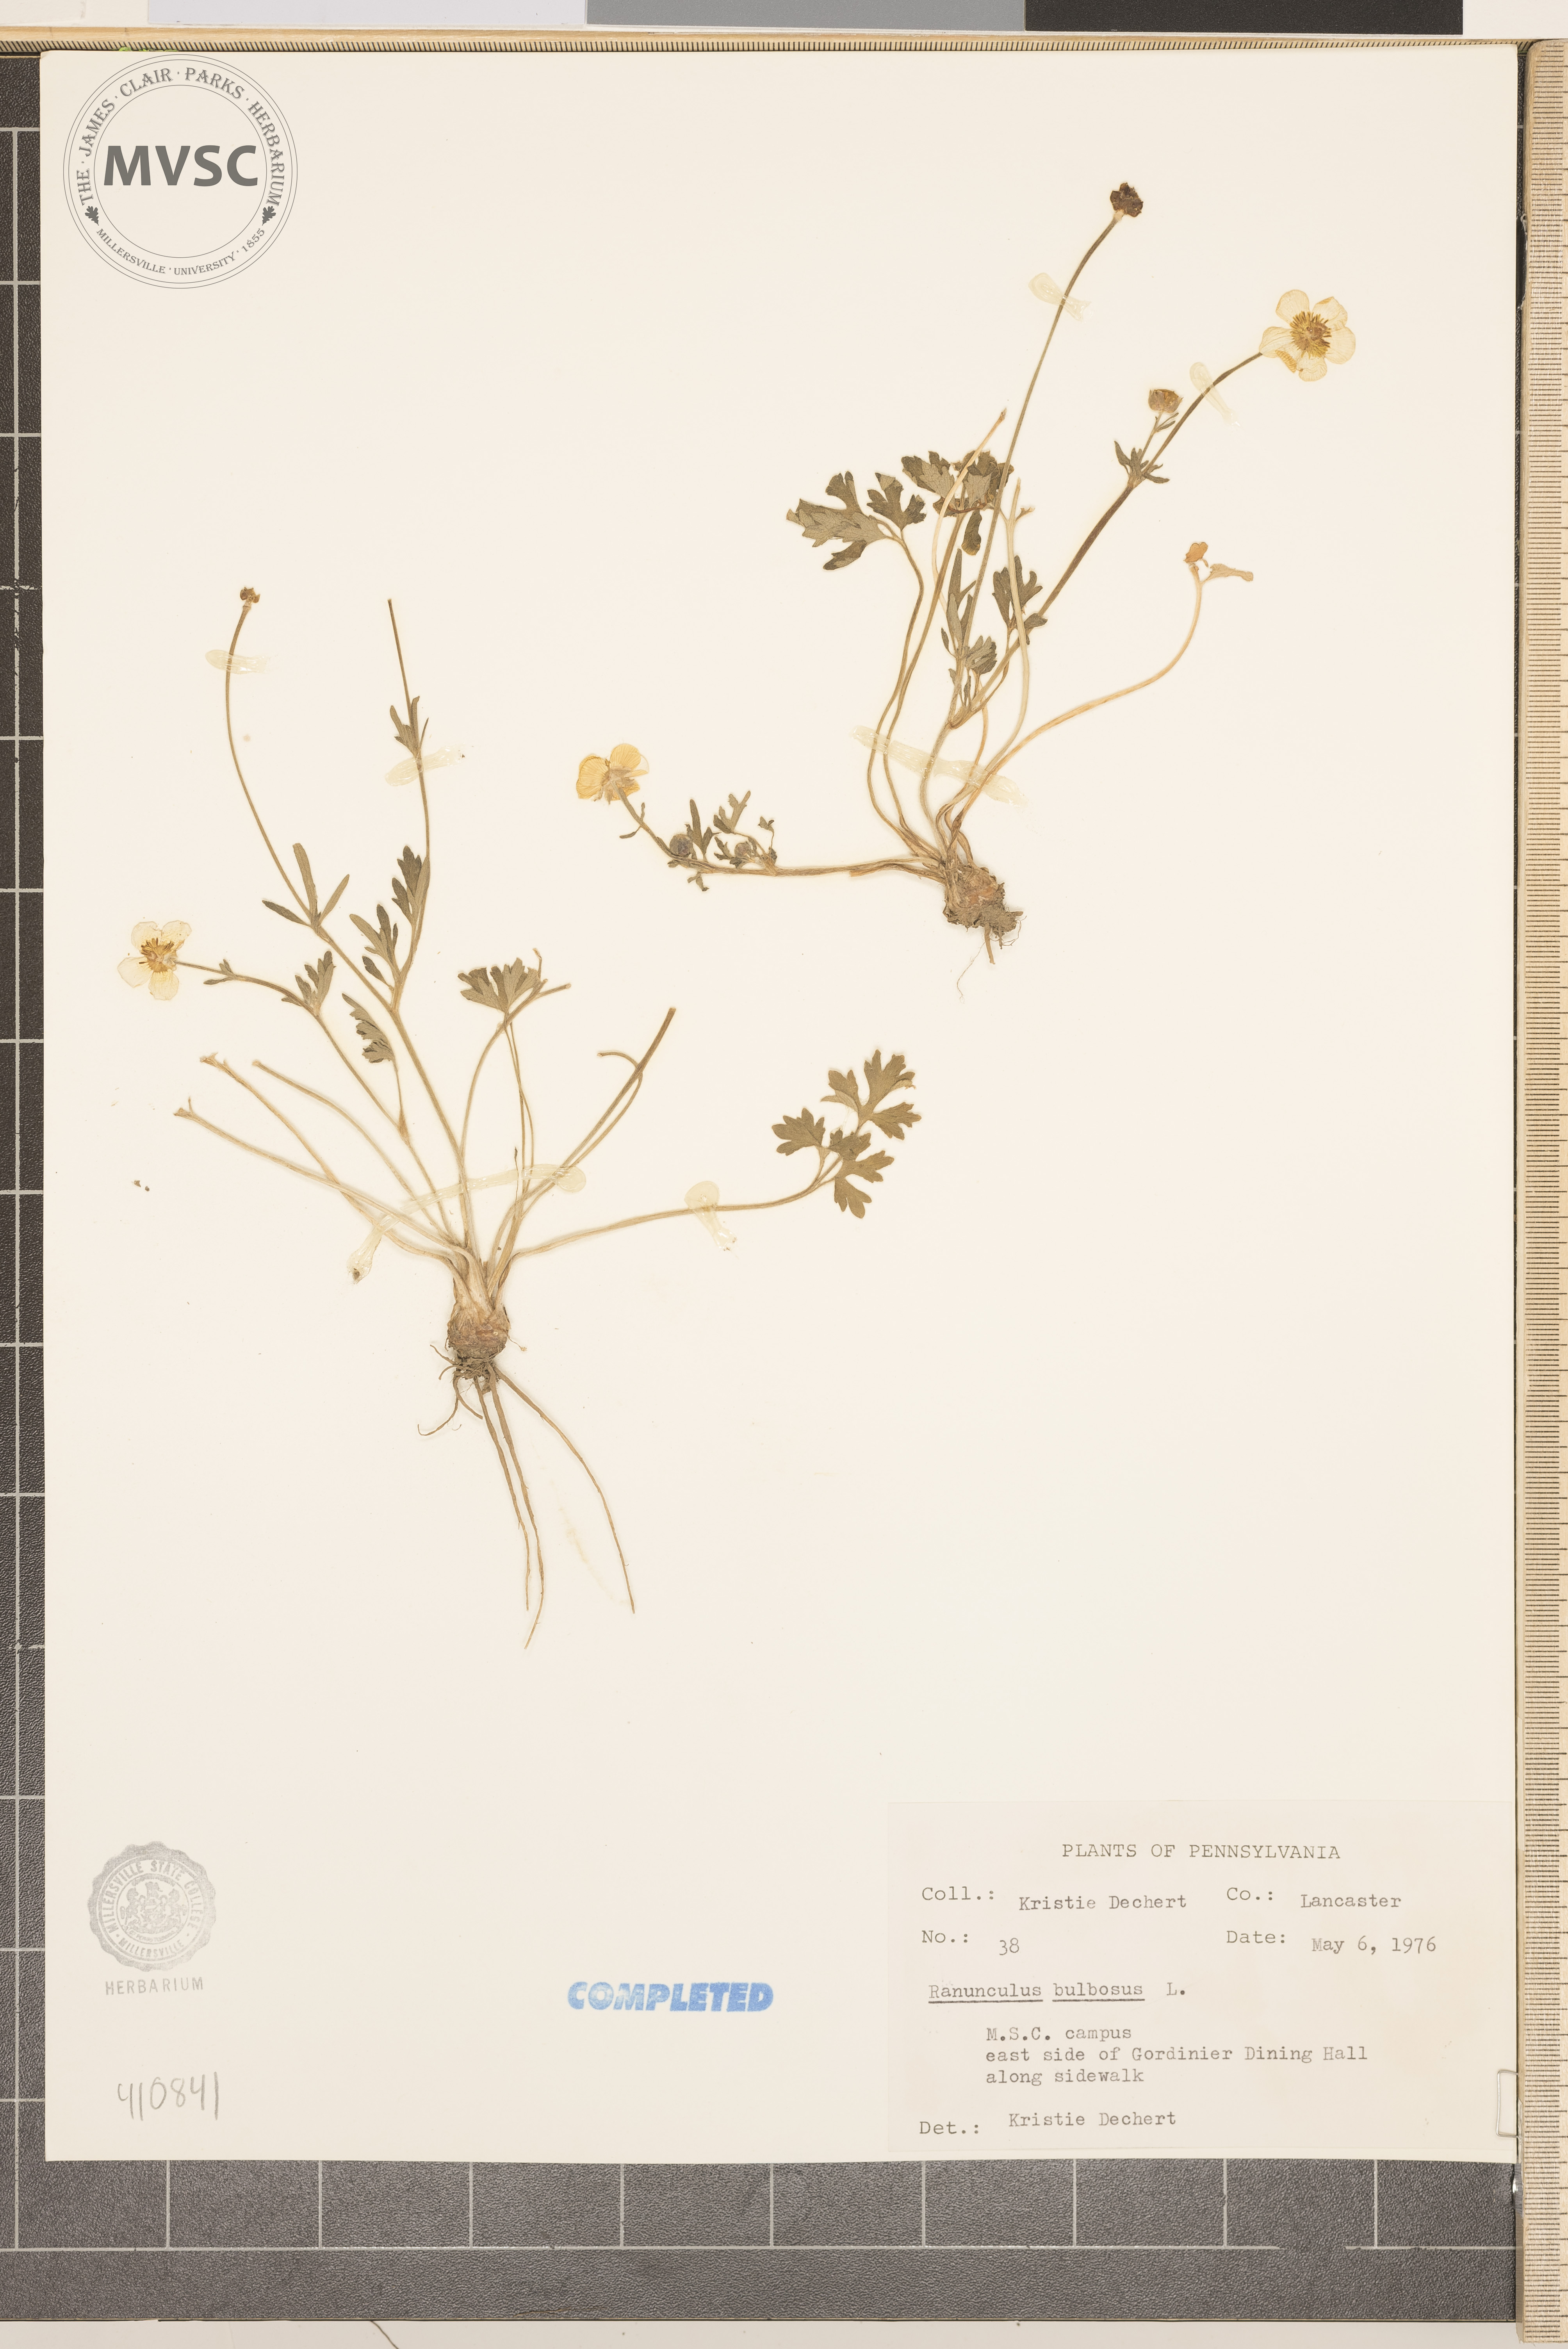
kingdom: Plantae
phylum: Tracheophyta
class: Magnoliopsida
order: Ranunculales
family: Ranunculaceae
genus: Ranunculus
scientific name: Ranunculus bulbosus
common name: Bulbous buttercup
